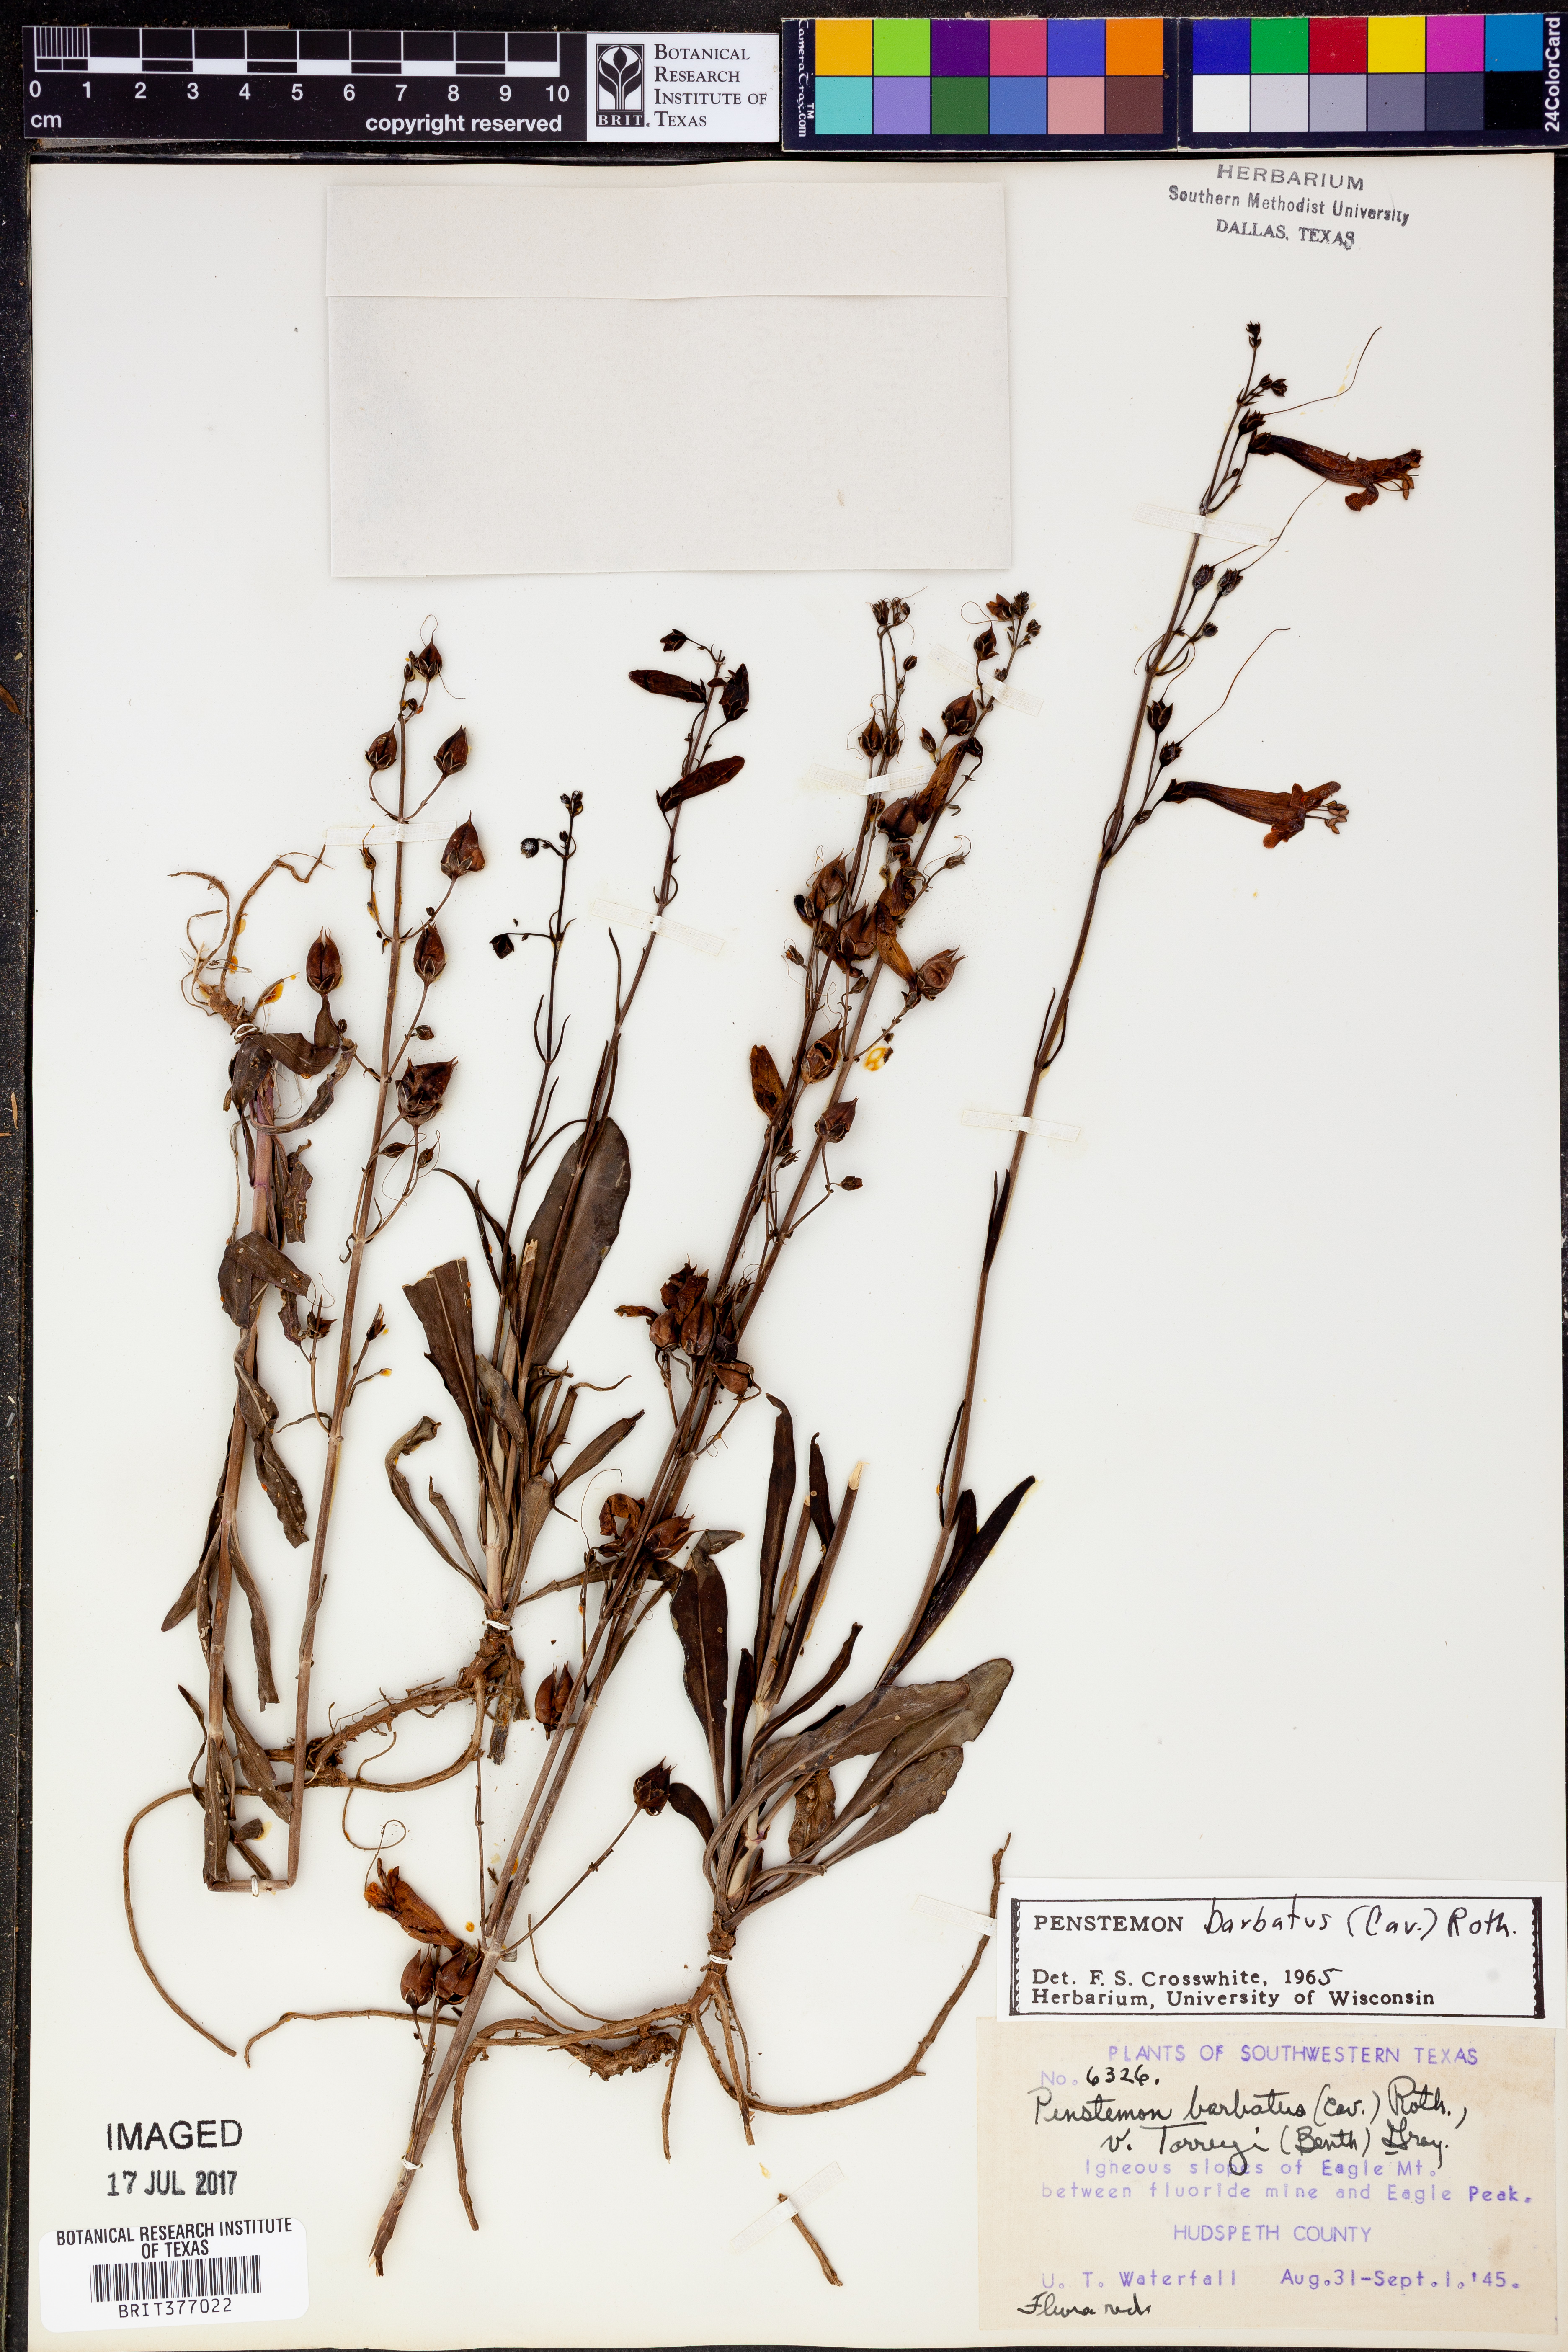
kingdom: Plantae
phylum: Tracheophyta
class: Magnoliopsida
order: Lamiales
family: Plantaginaceae
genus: Penstemon
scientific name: Penstemon barbatus
